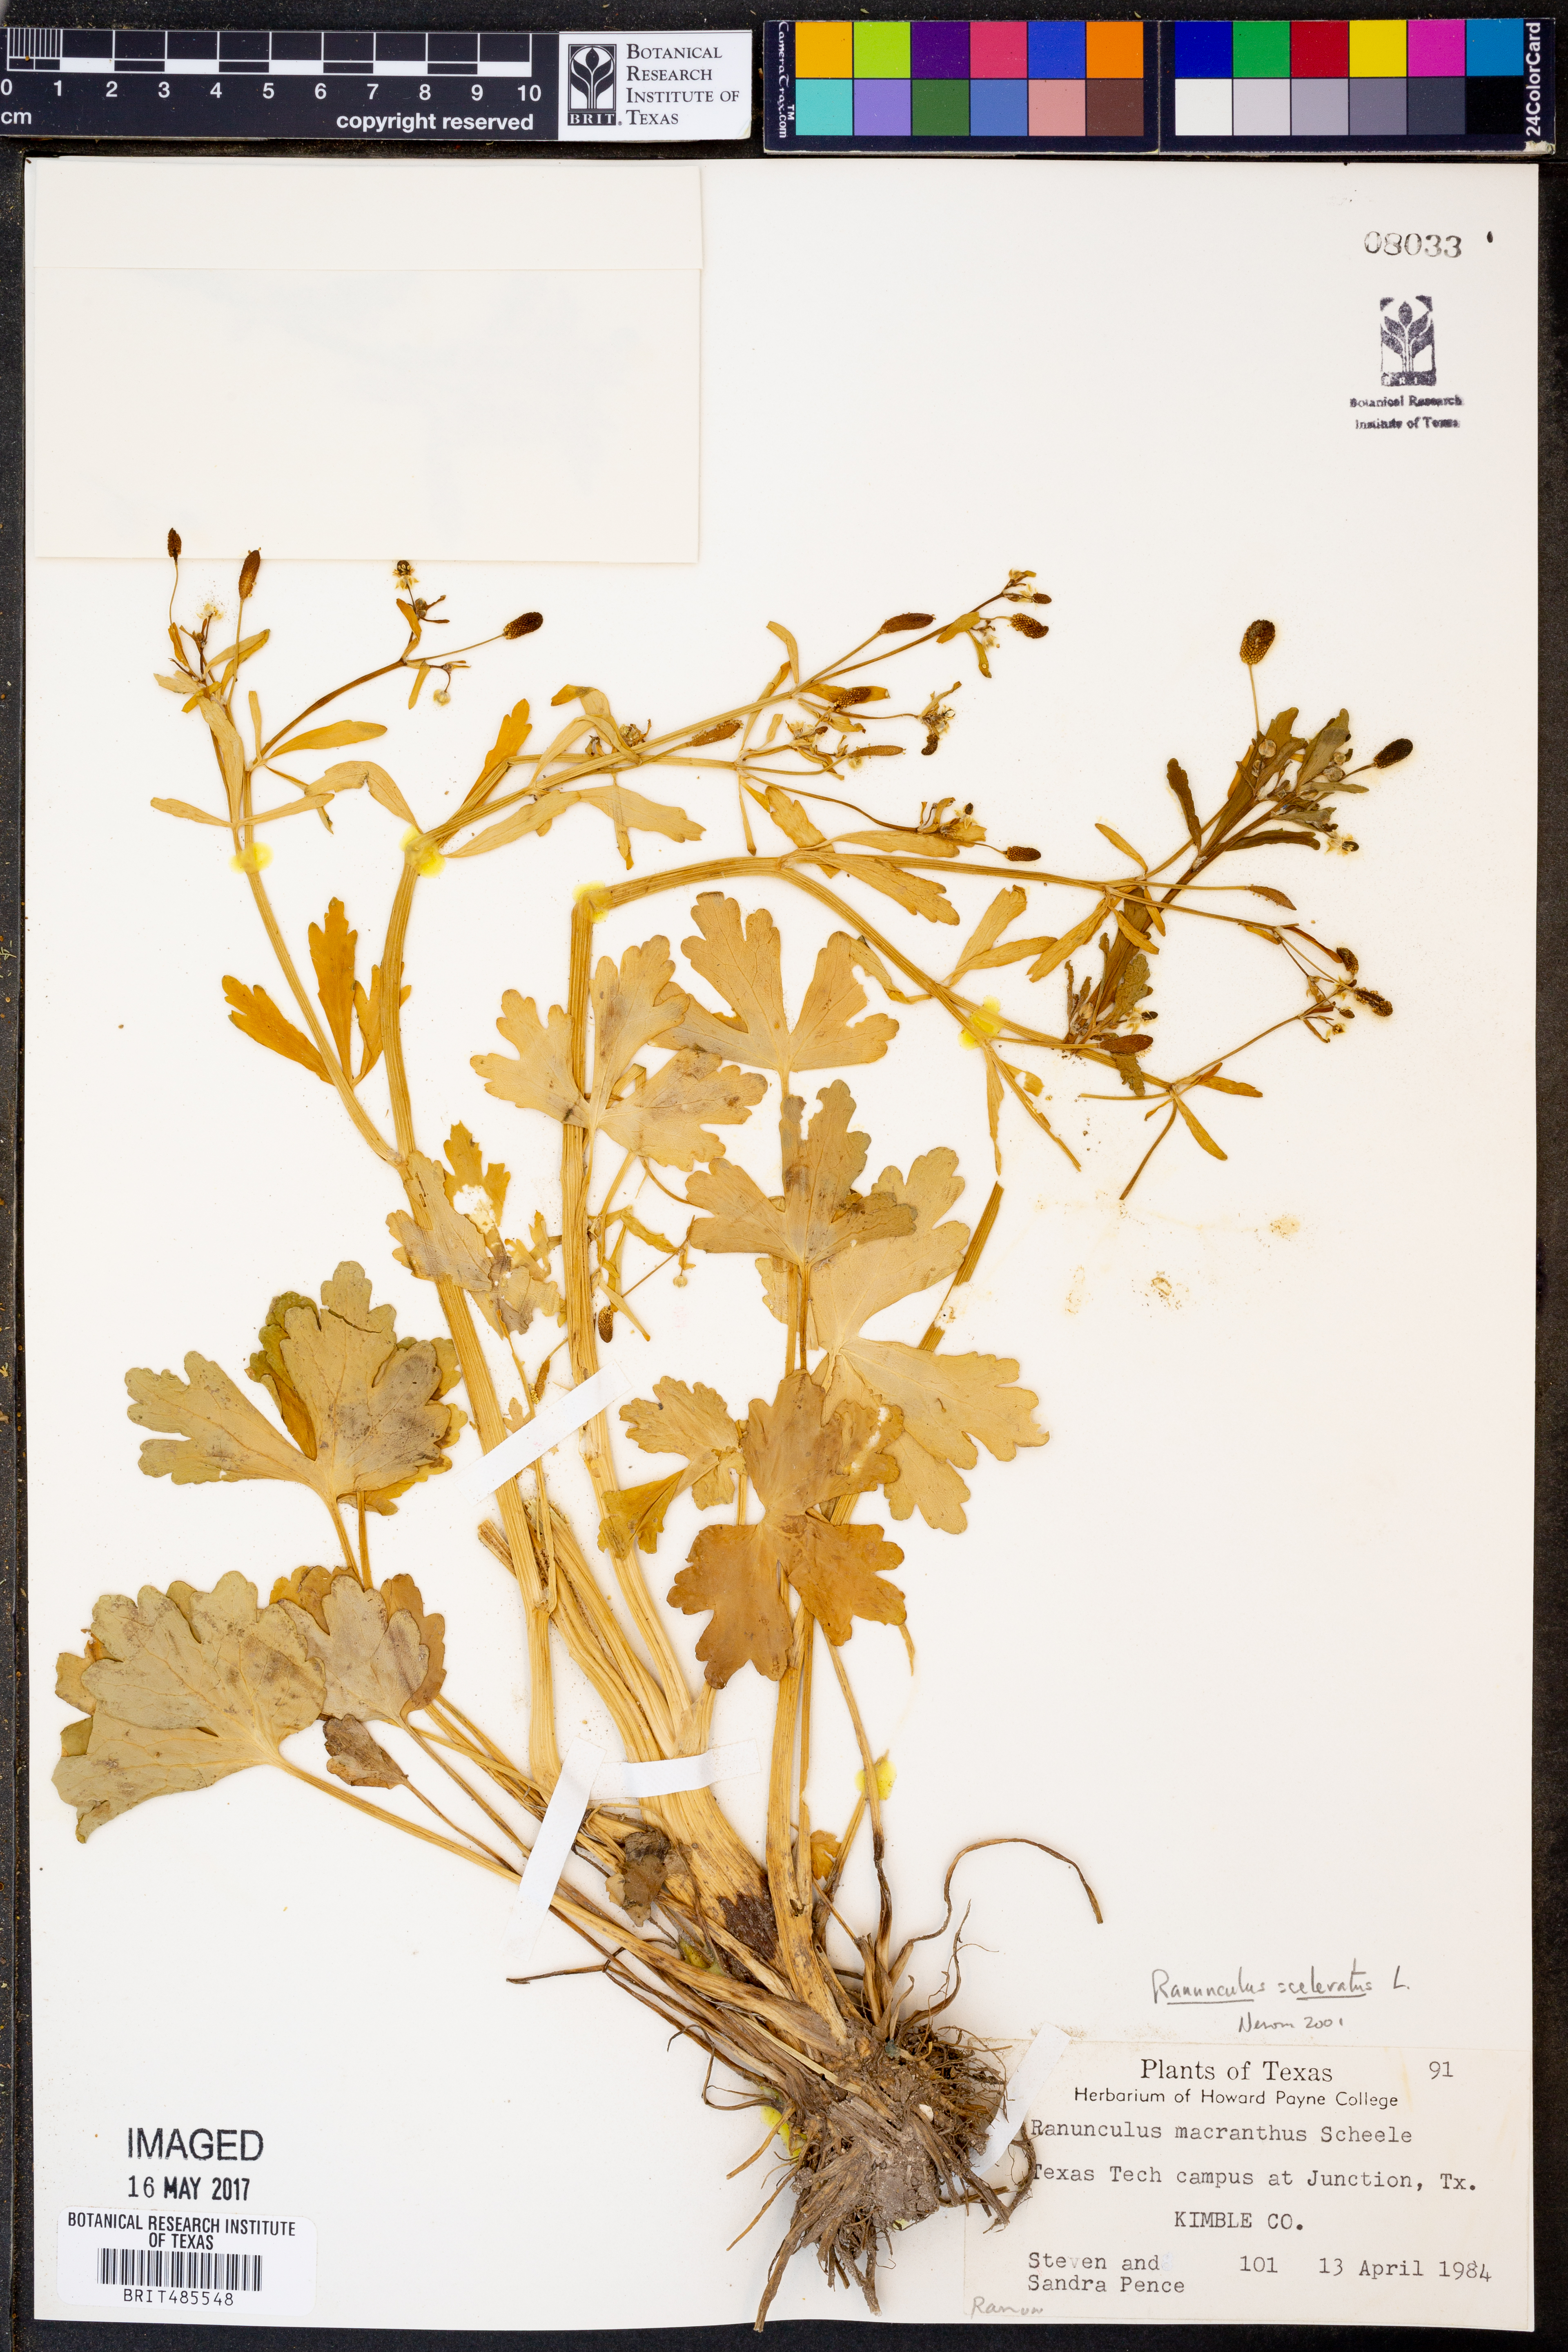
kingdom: Plantae
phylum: Tracheophyta
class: Magnoliopsida
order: Ranunculales
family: Ranunculaceae
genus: Ranunculus
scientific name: Ranunculus sceleratus
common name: Celery-leaved buttercup
